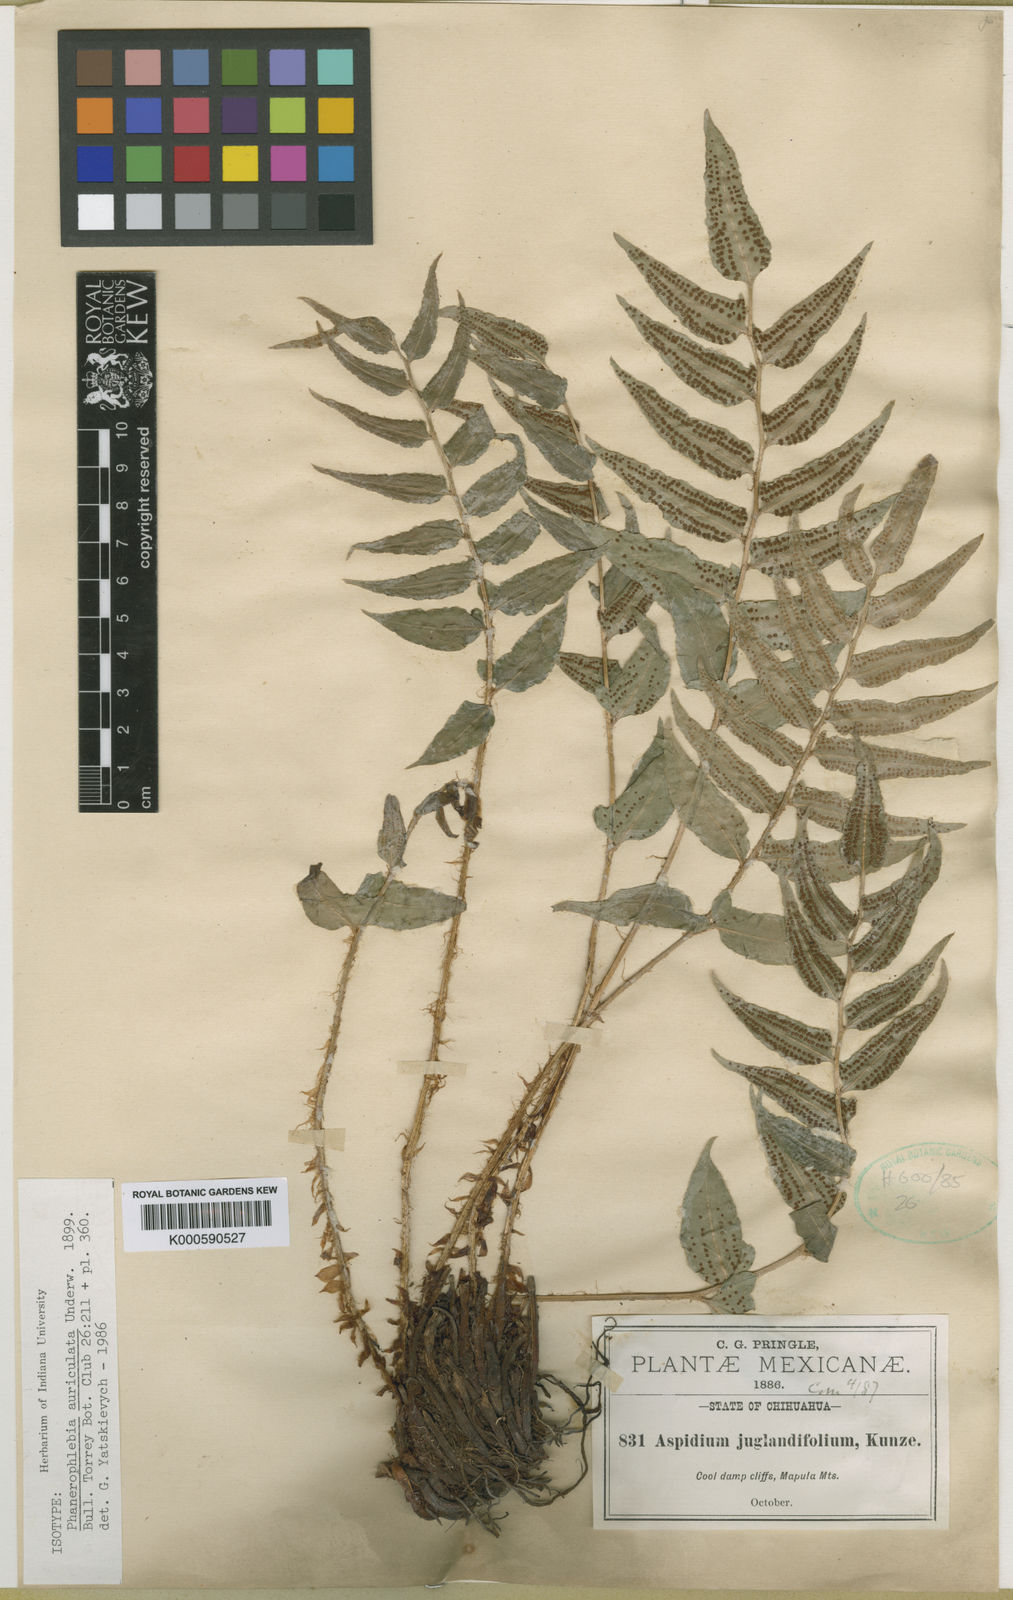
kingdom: Plantae
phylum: Tracheophyta
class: Polypodiopsida
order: Polypodiales
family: Dryopteridaceae
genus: Phanerophlebia
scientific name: Phanerophlebia auriculata
